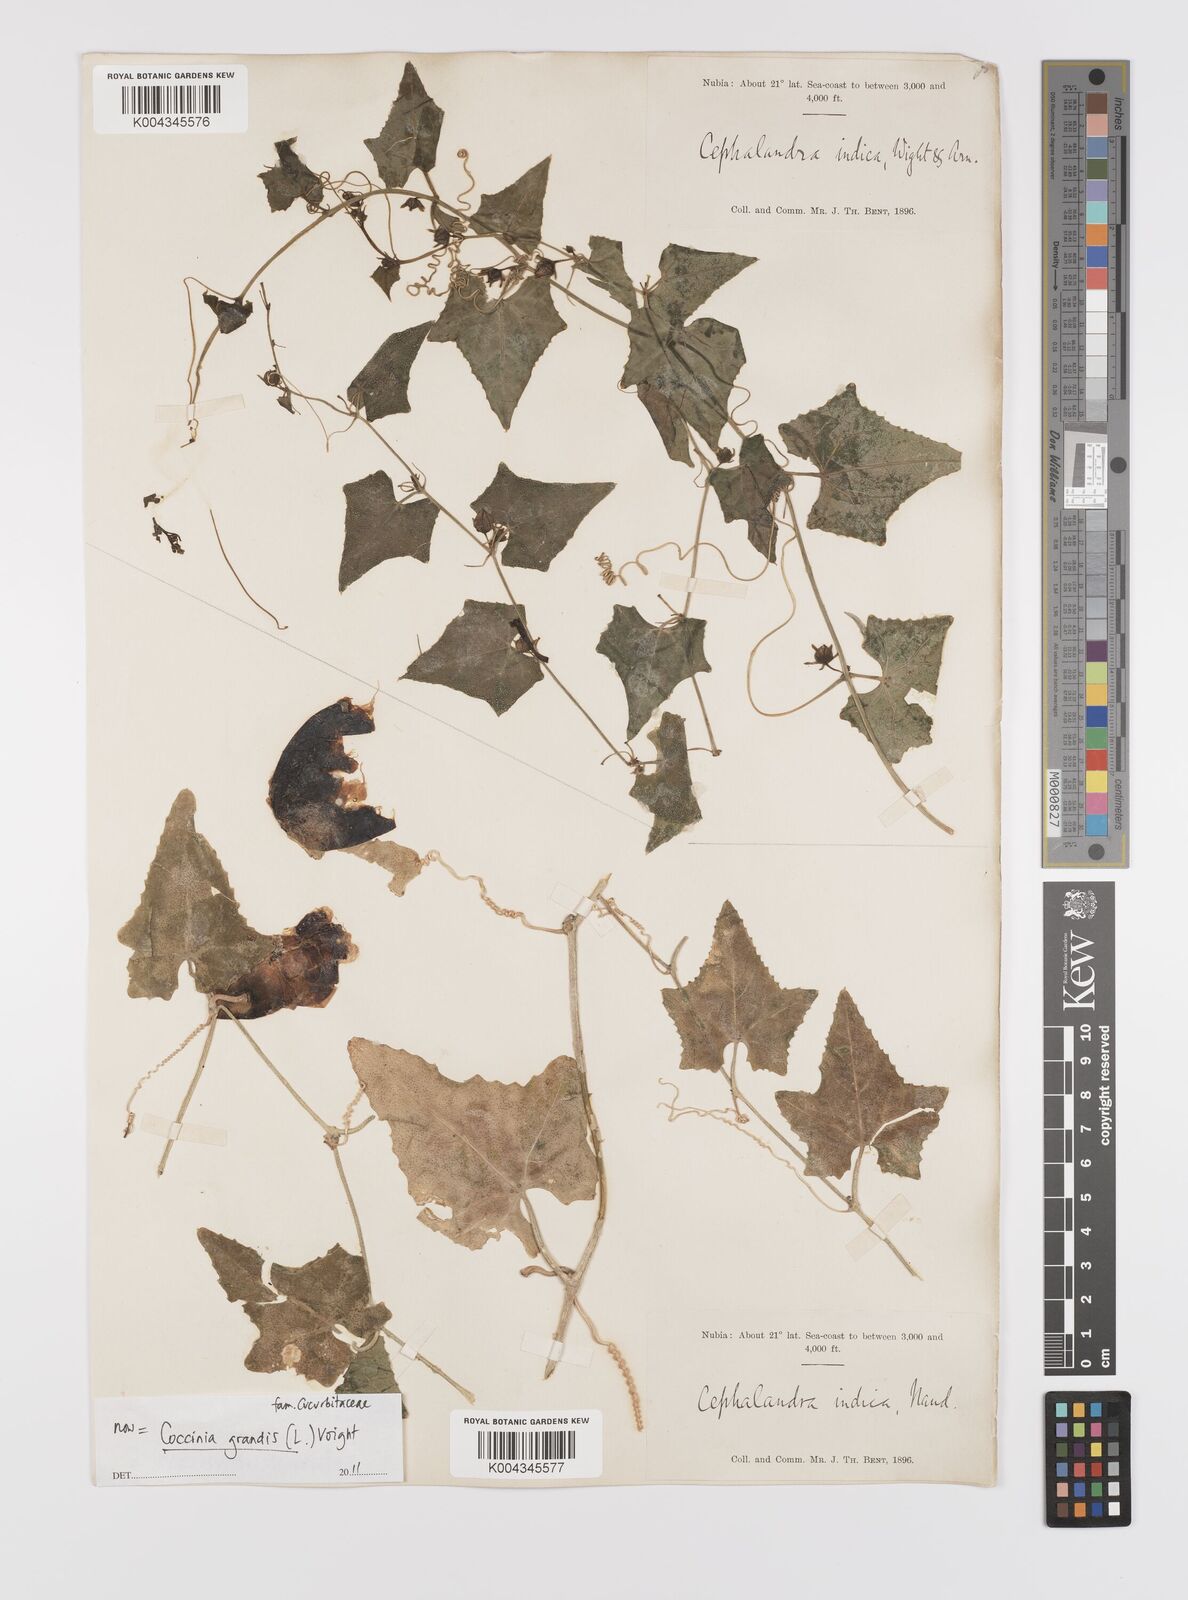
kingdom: Plantae
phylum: Tracheophyta
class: Magnoliopsida
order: Cucurbitales
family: Cucurbitaceae
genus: Coccinia
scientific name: Coccinia grandis
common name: Ivy gourd
